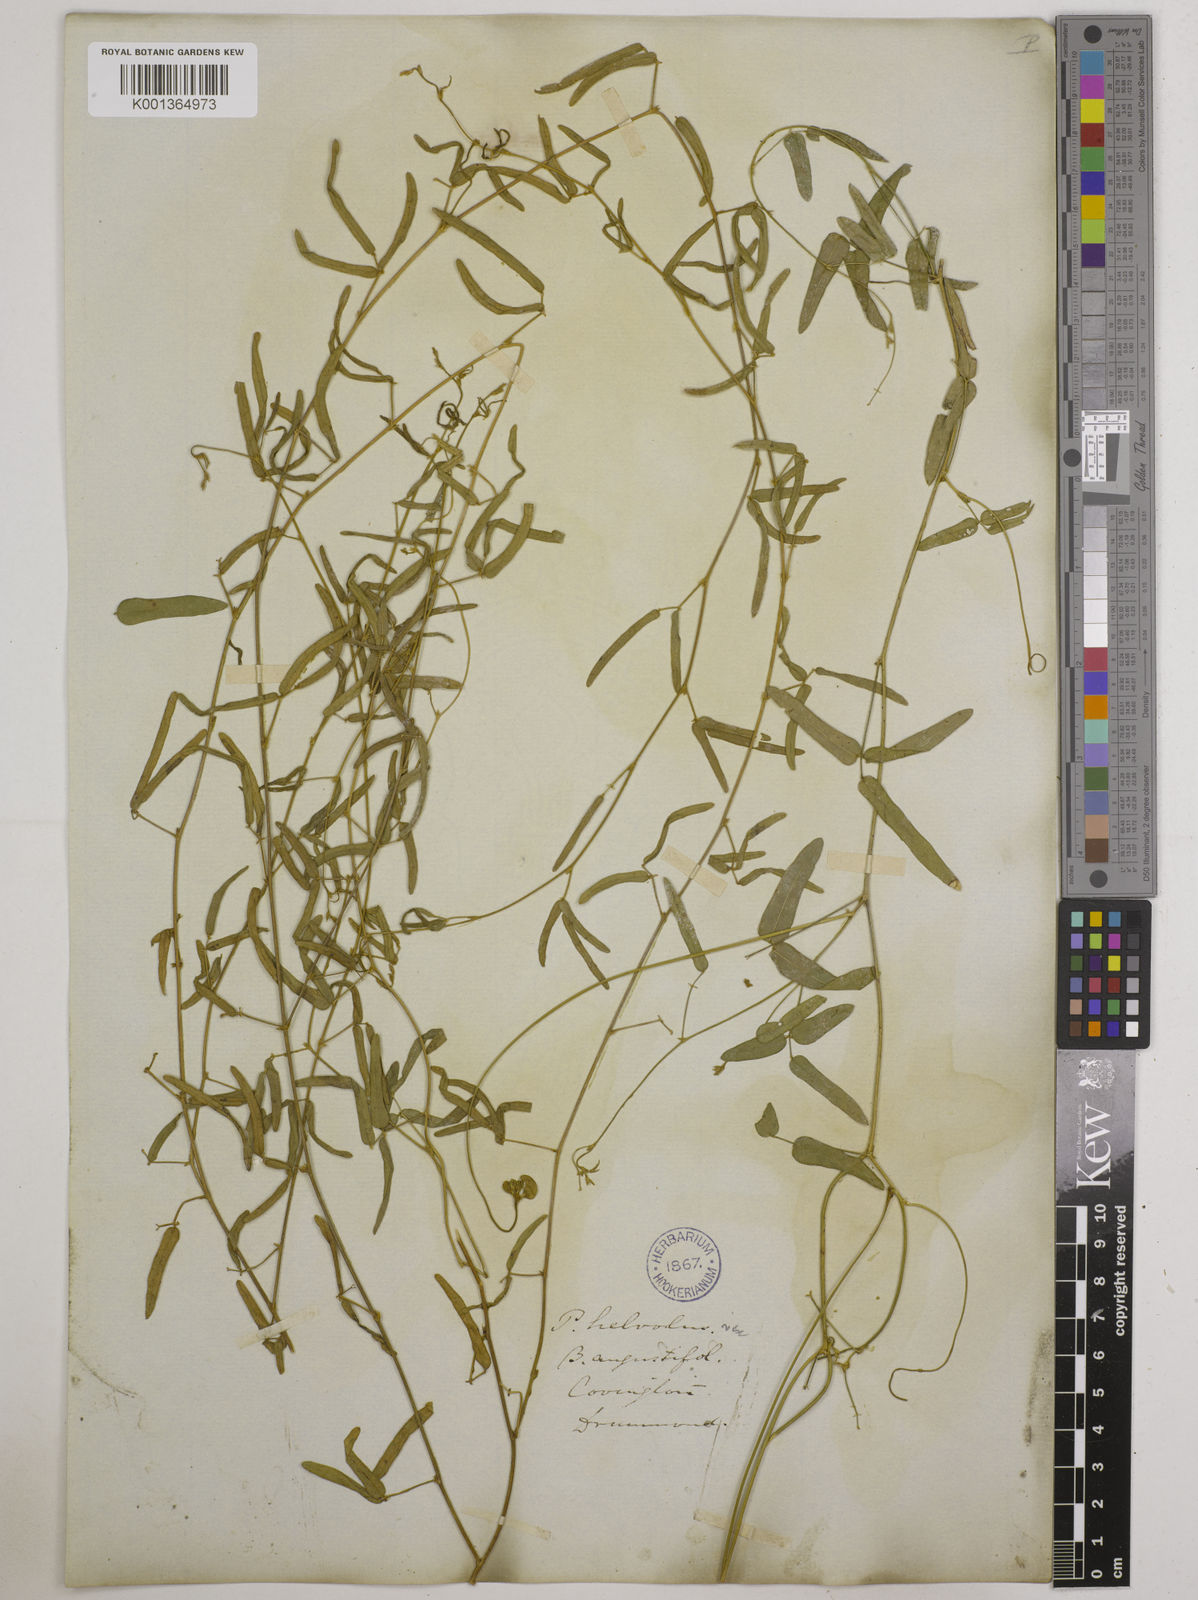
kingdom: Plantae
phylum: Tracheophyta
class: Magnoliopsida
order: Fabales
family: Fabaceae
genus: Strophostyles
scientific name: Strophostyles umbellata
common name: Perennial wild bean
